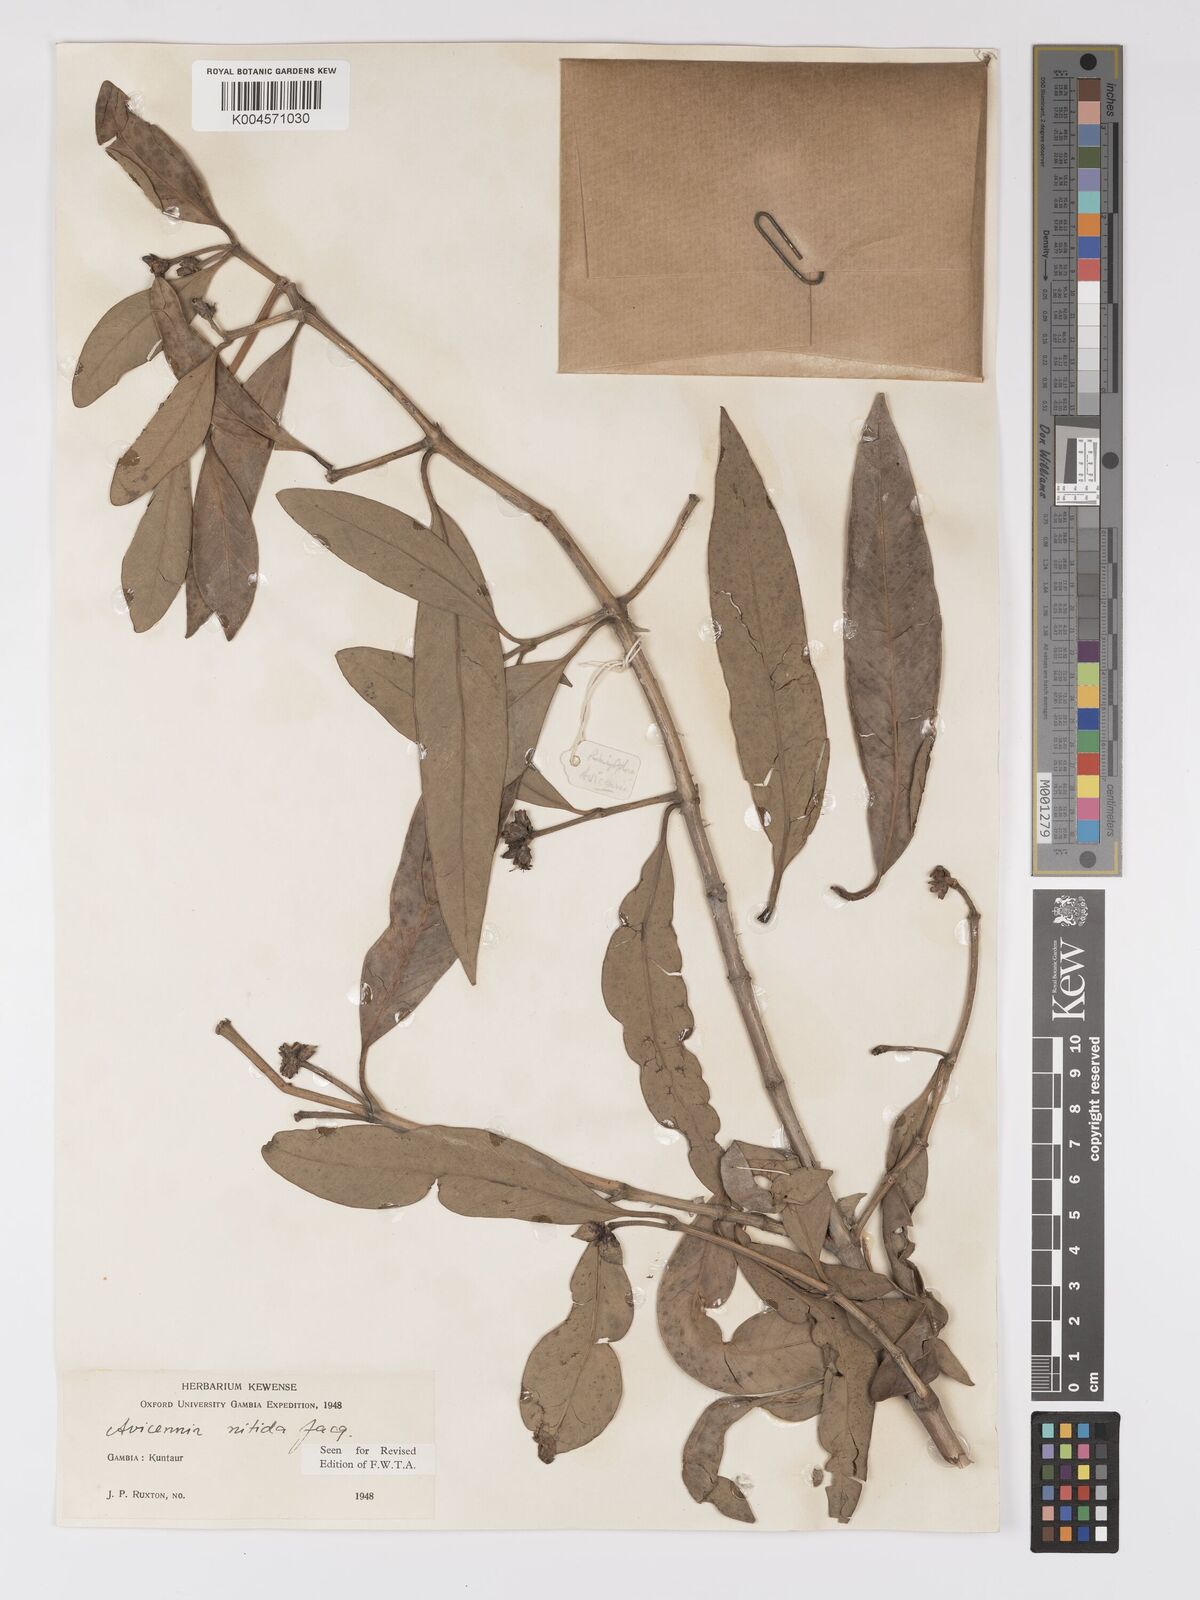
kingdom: Plantae
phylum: Tracheophyta
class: Magnoliopsida
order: Lamiales
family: Acanthaceae
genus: Avicennia
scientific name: Avicennia germinans
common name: Black mangrove
